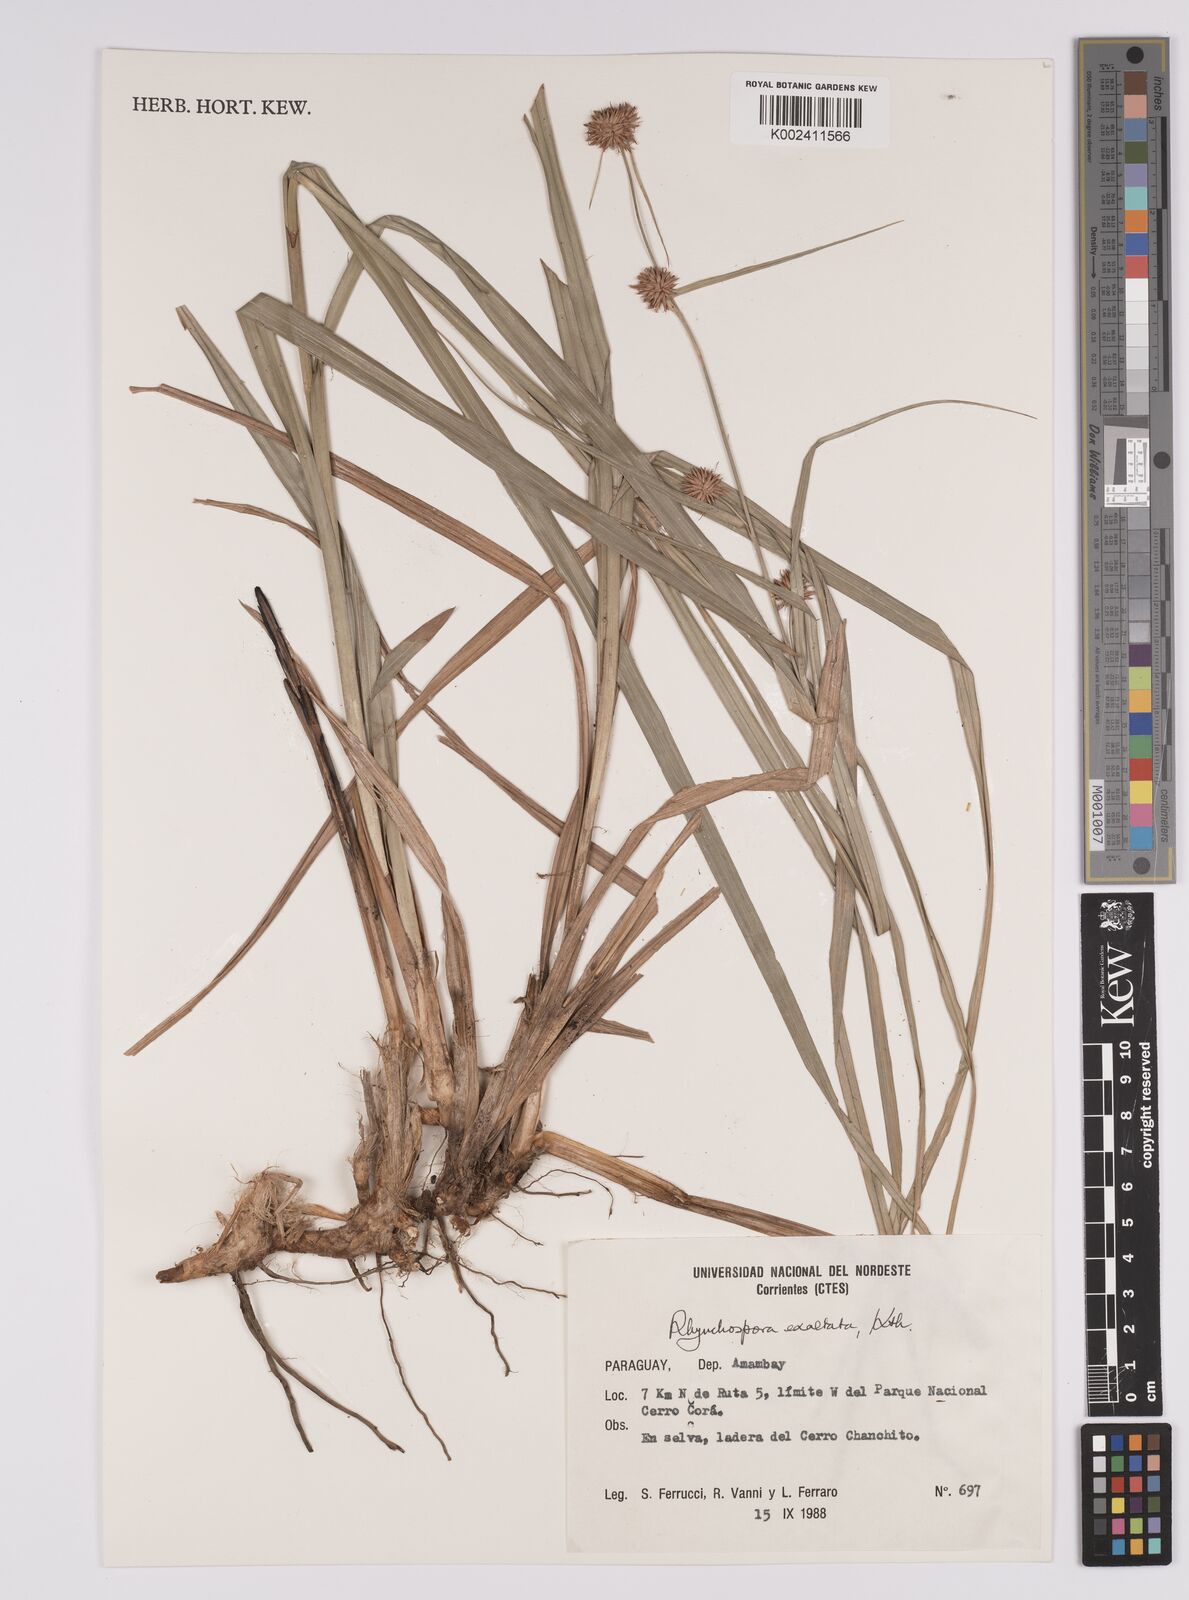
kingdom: Plantae
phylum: Tracheophyta
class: Liliopsida
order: Poales
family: Cyperaceae
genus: Rhynchospora
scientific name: Rhynchospora exaltata
